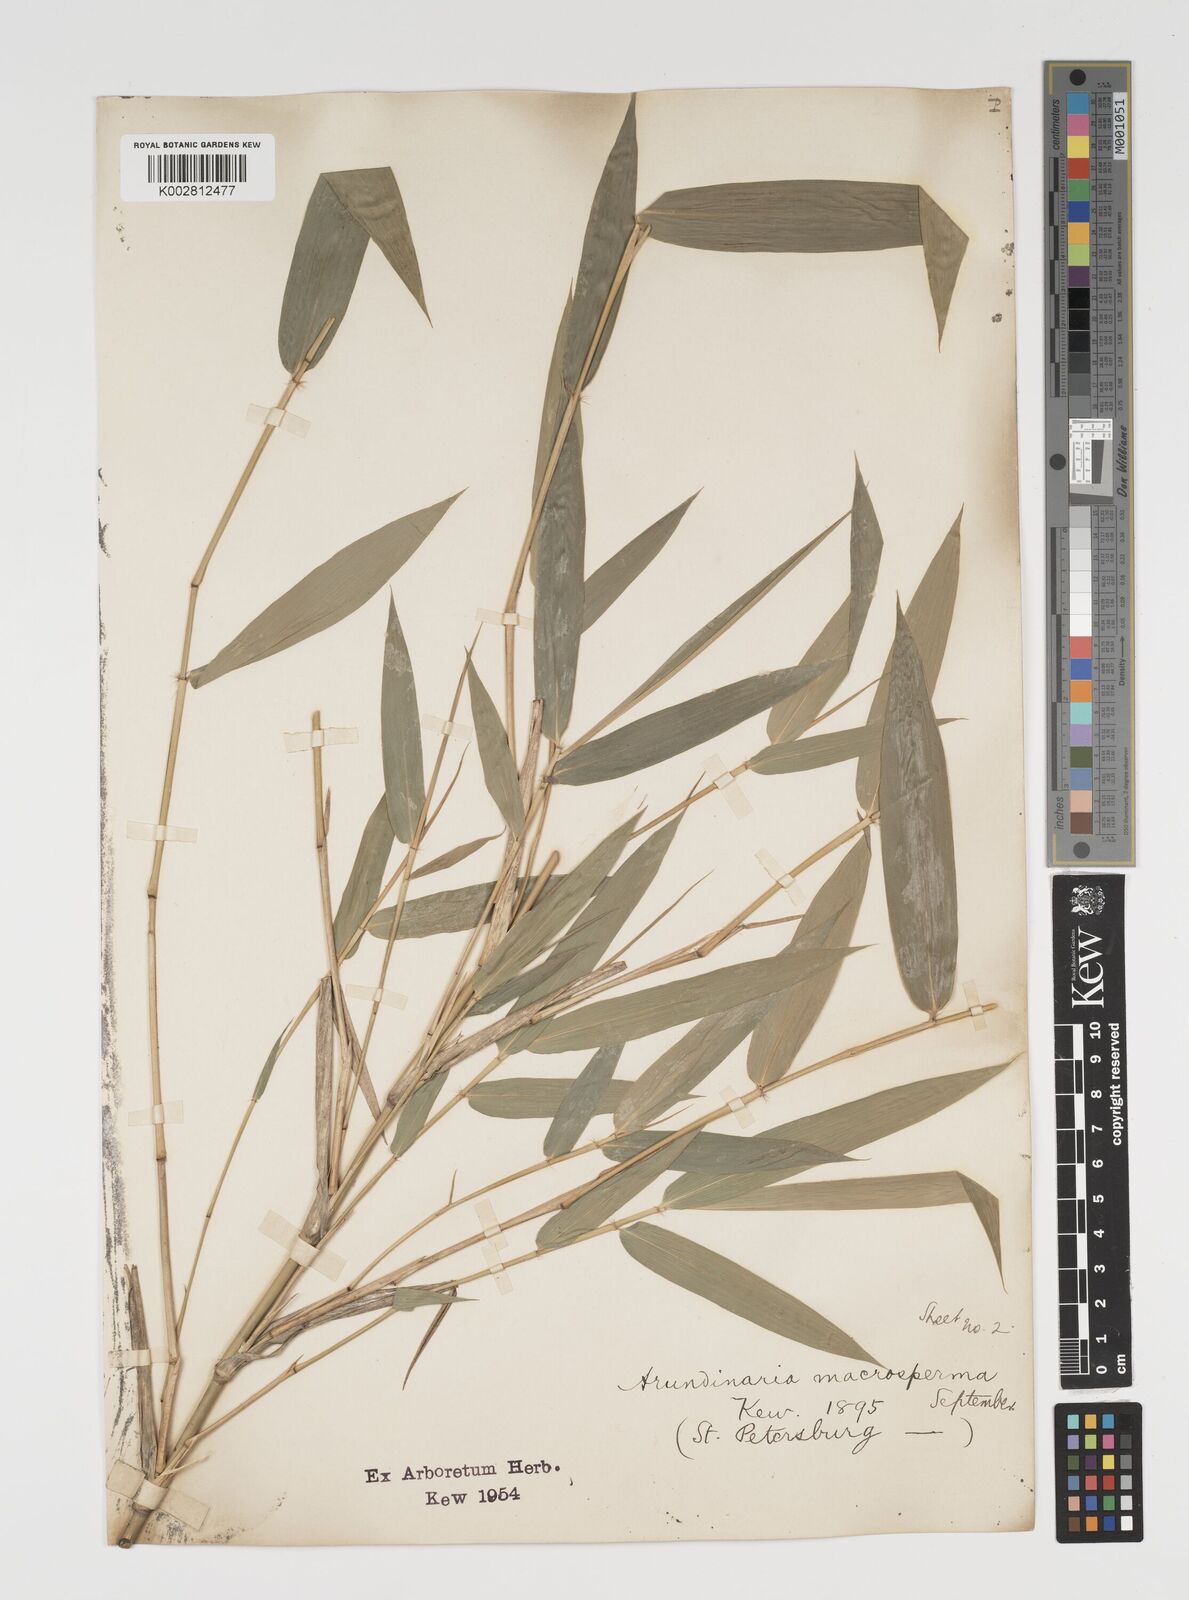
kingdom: Plantae
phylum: Tracheophyta
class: Liliopsida
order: Poales
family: Poaceae
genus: Arundinaria
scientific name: Arundinaria tecta
